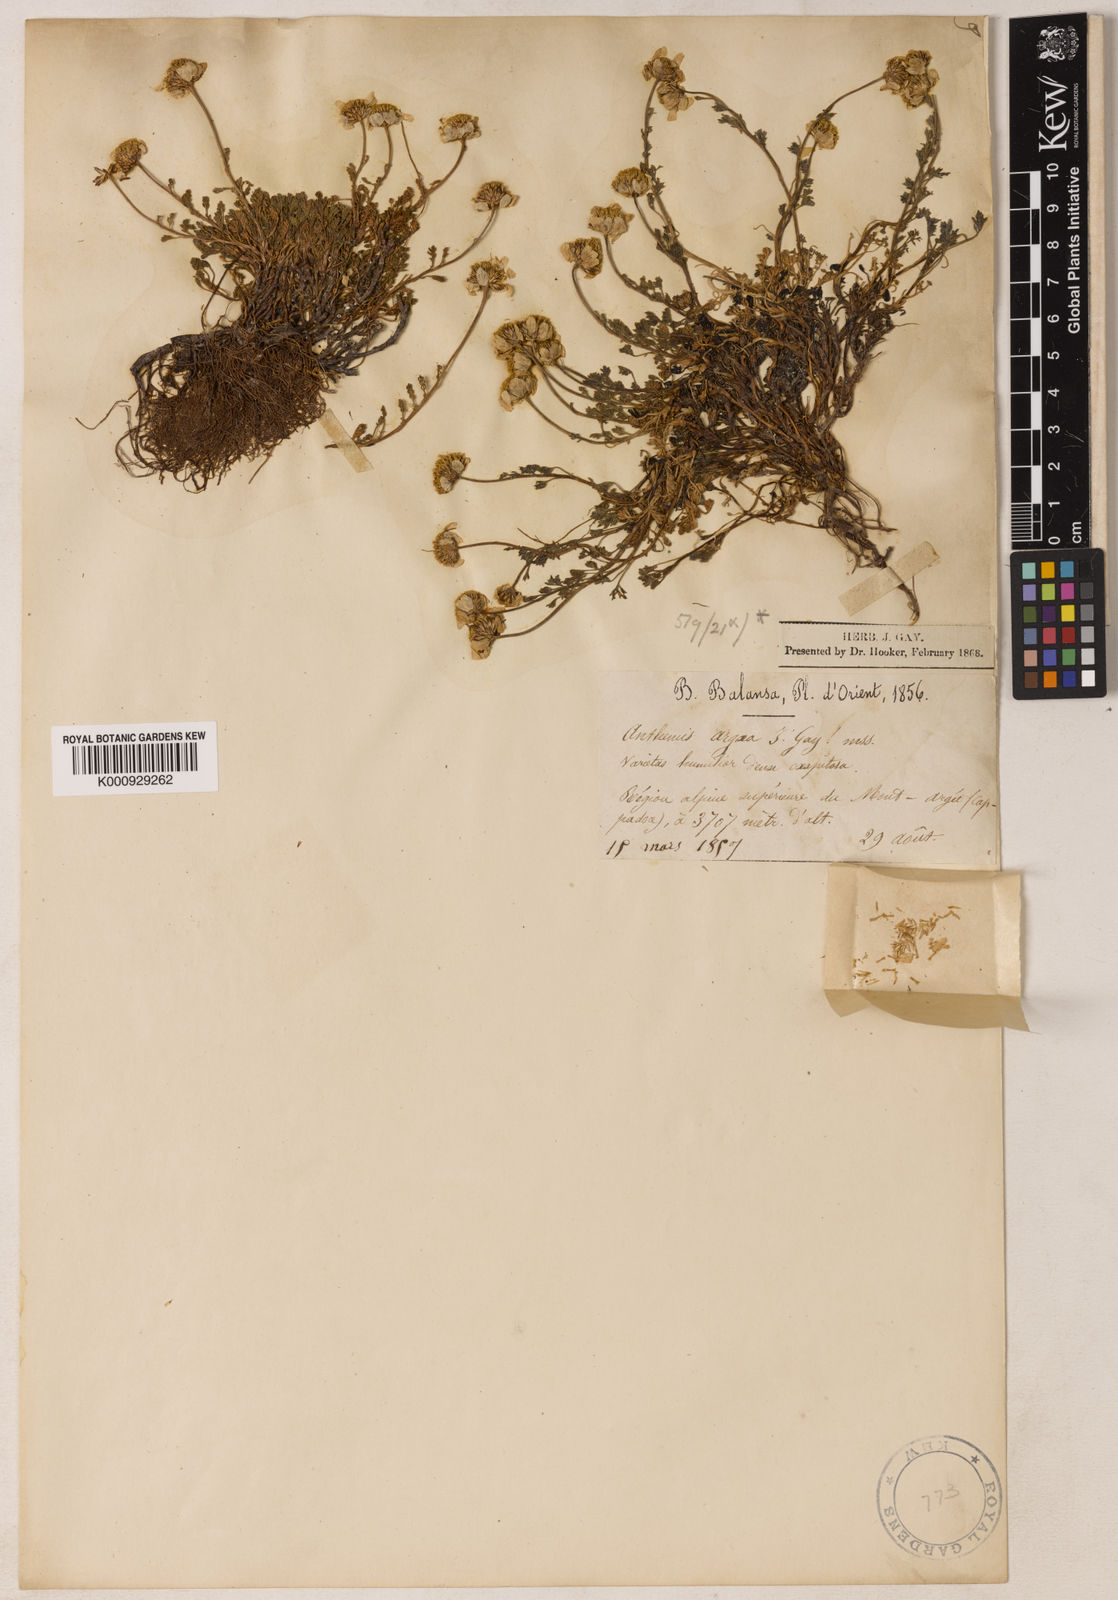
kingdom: Plantae
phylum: Tracheophyta
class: Magnoliopsida
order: Asterales
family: Asteraceae
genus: Anthemis
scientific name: Anthemis cretica
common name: Mountain dog-daisy
